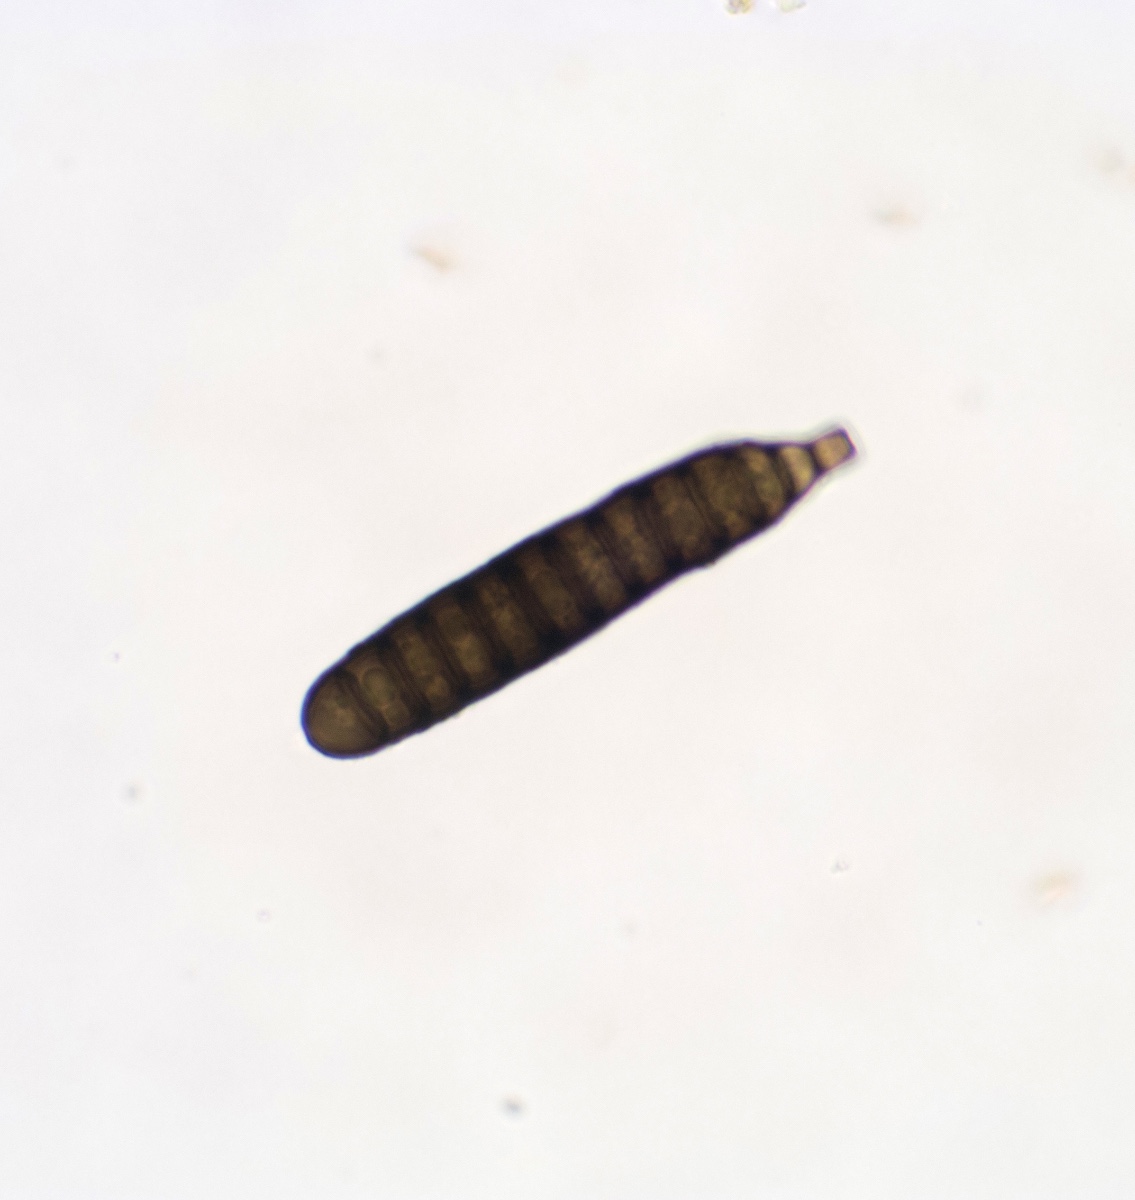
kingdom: Fungi
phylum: Ascomycota
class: Dothideomycetes
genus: Stanjehughesia
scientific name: Stanjehughesia larvata
